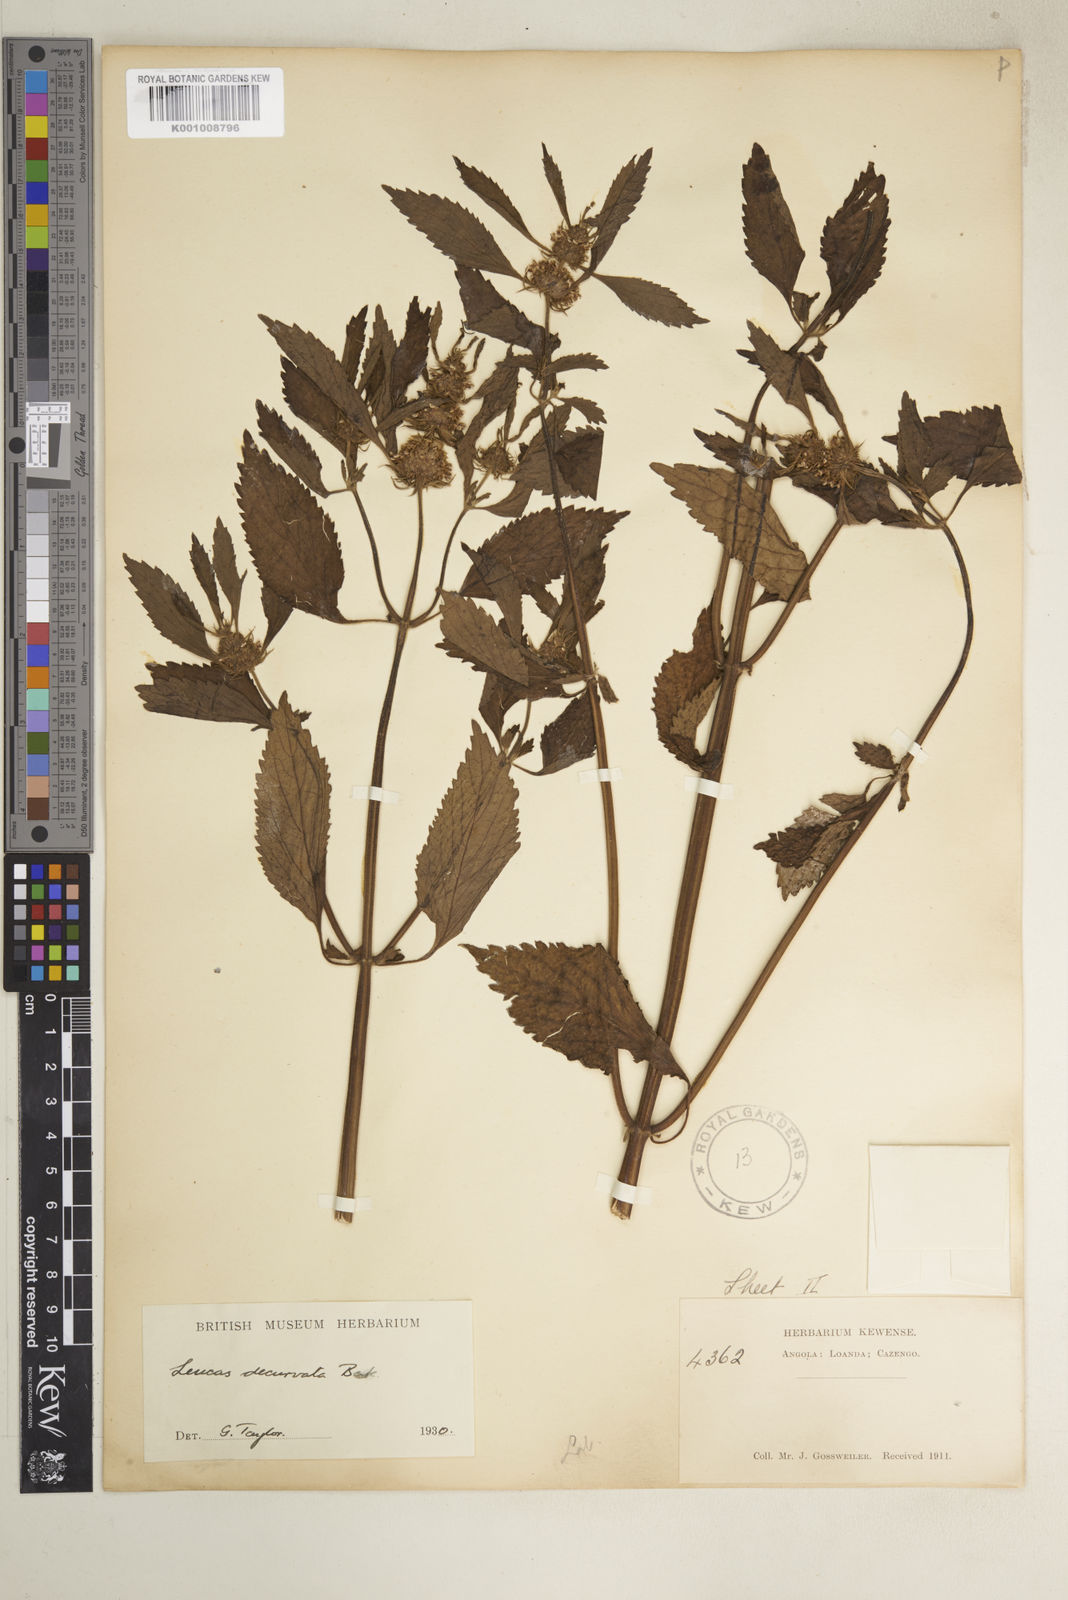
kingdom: Plantae
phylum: Tracheophyta
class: Magnoliopsida
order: Lamiales
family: Lamiaceae
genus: Leucas
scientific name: Leucas deflexa
